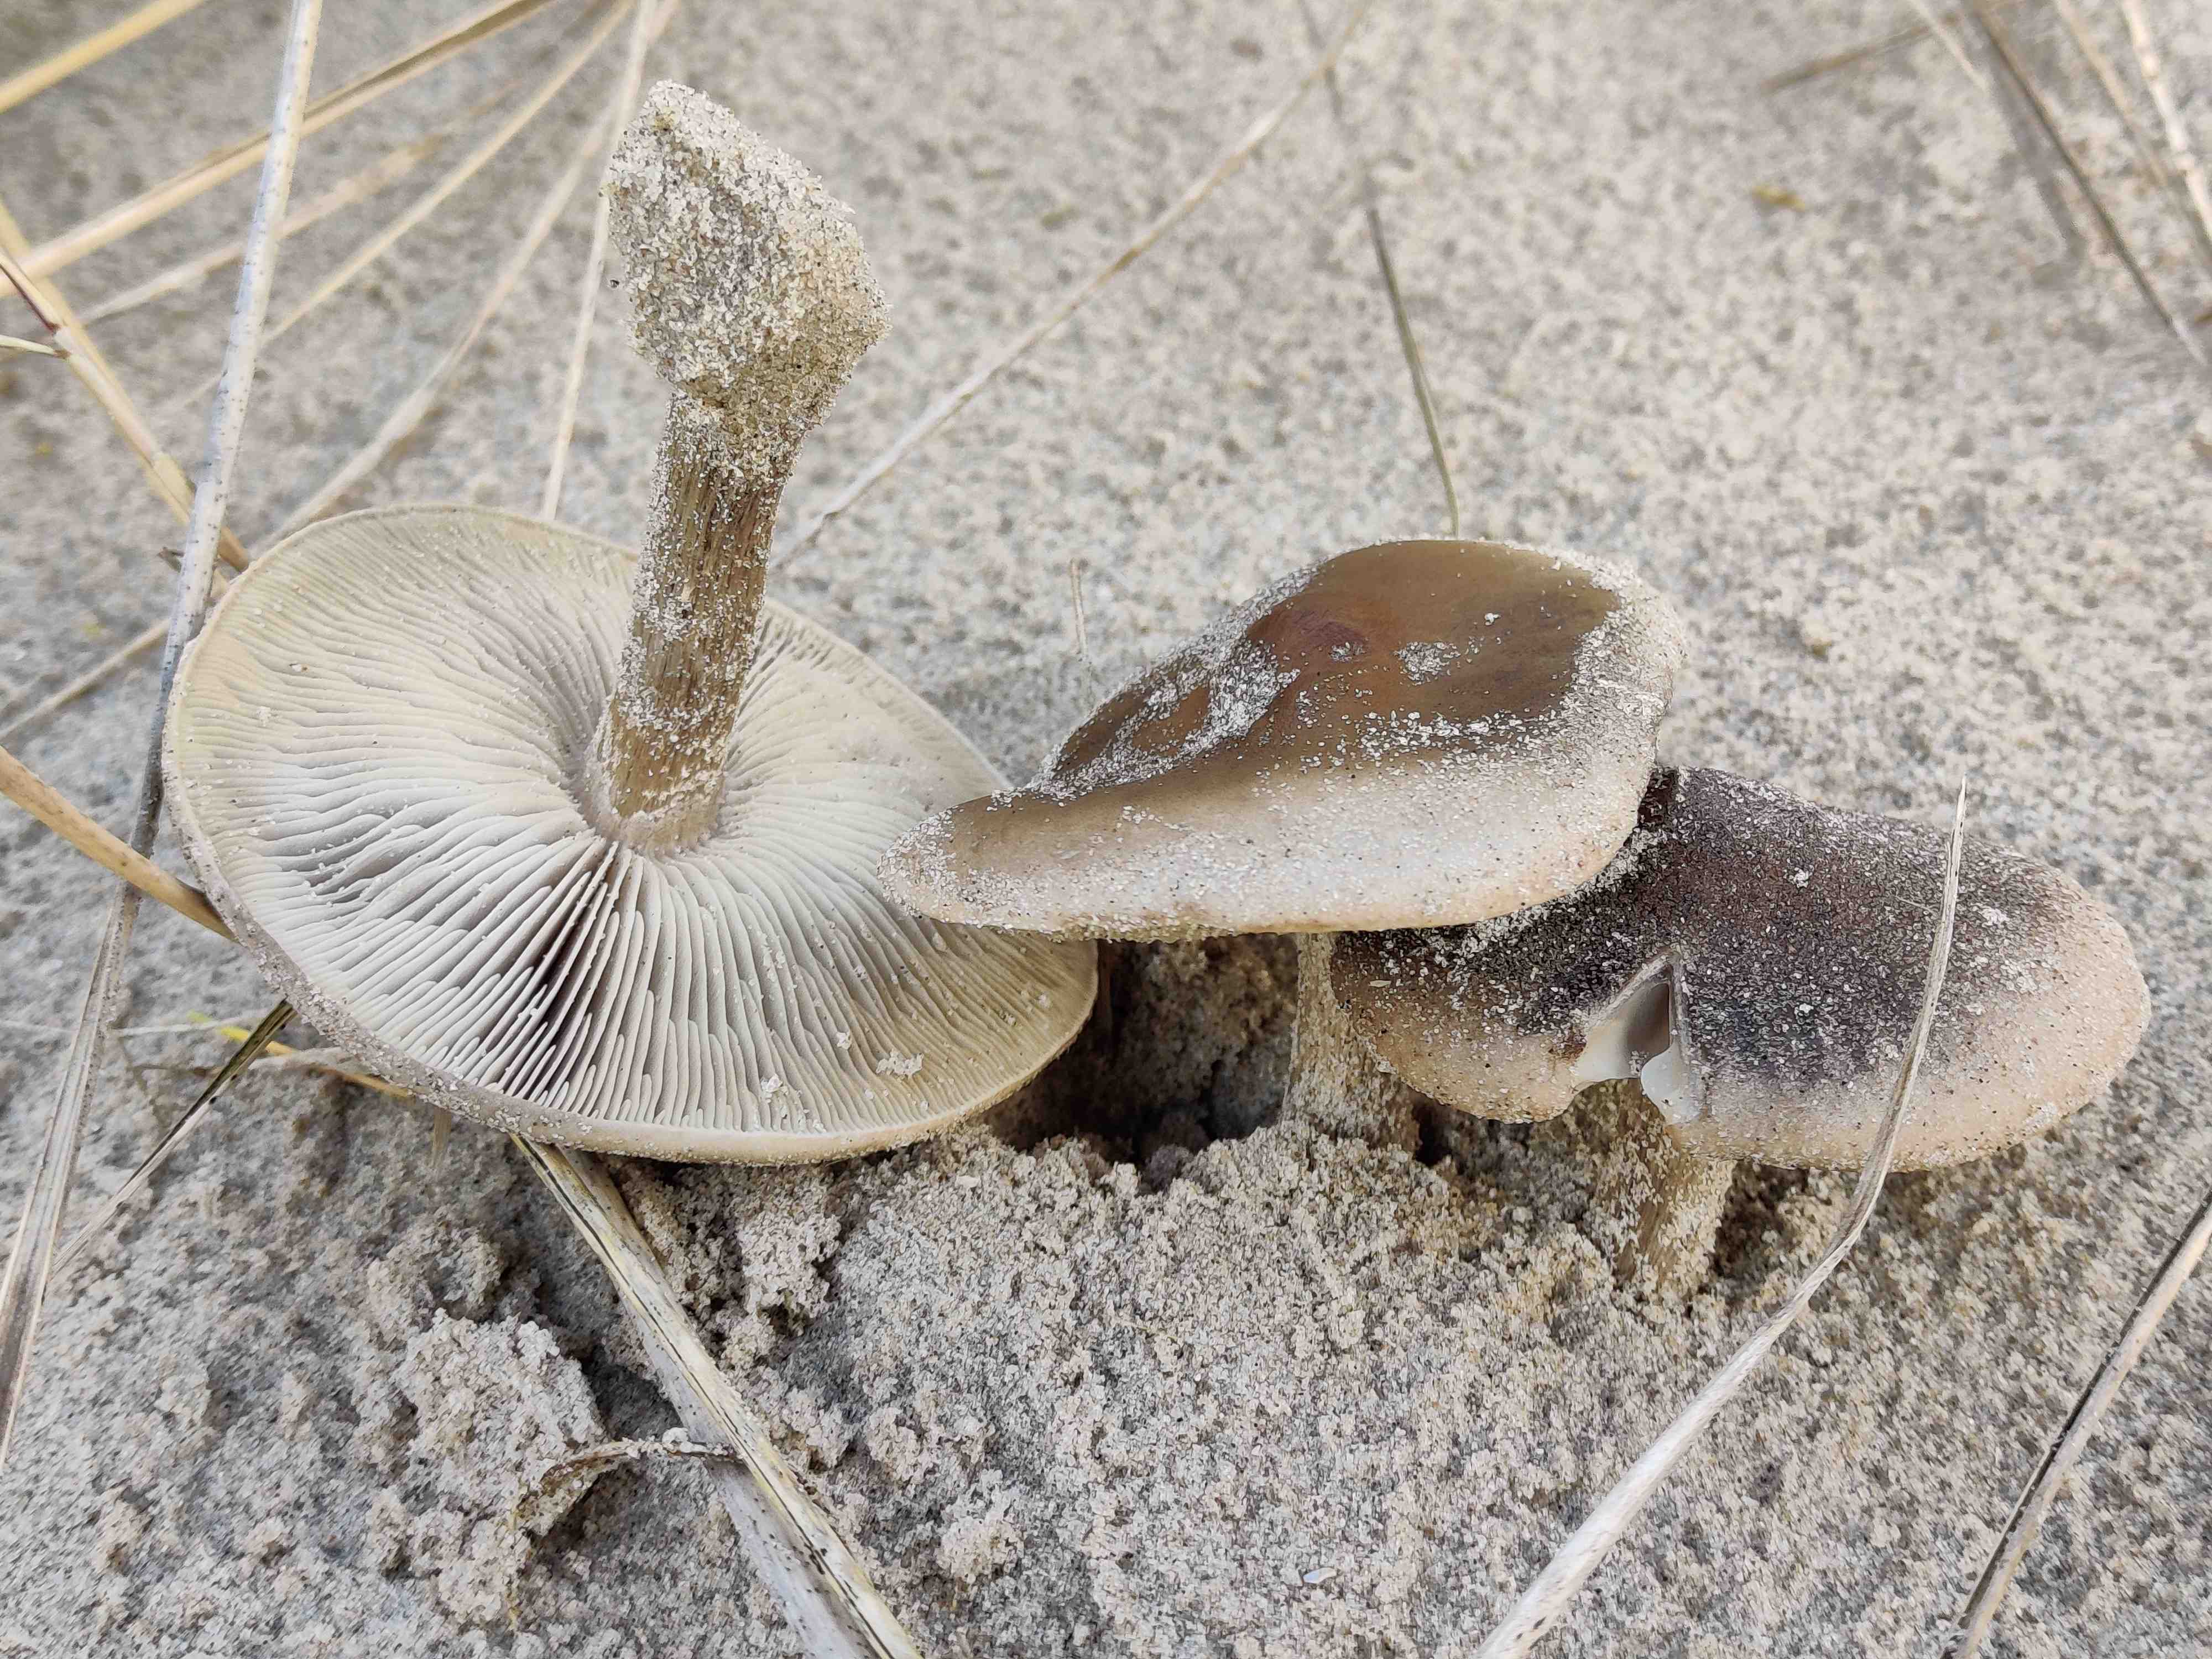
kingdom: Fungi
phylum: Basidiomycota
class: Agaricomycetes
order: Agaricales
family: Tricholomataceae
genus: Melanoleuca
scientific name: Melanoleuca
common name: munkehat
